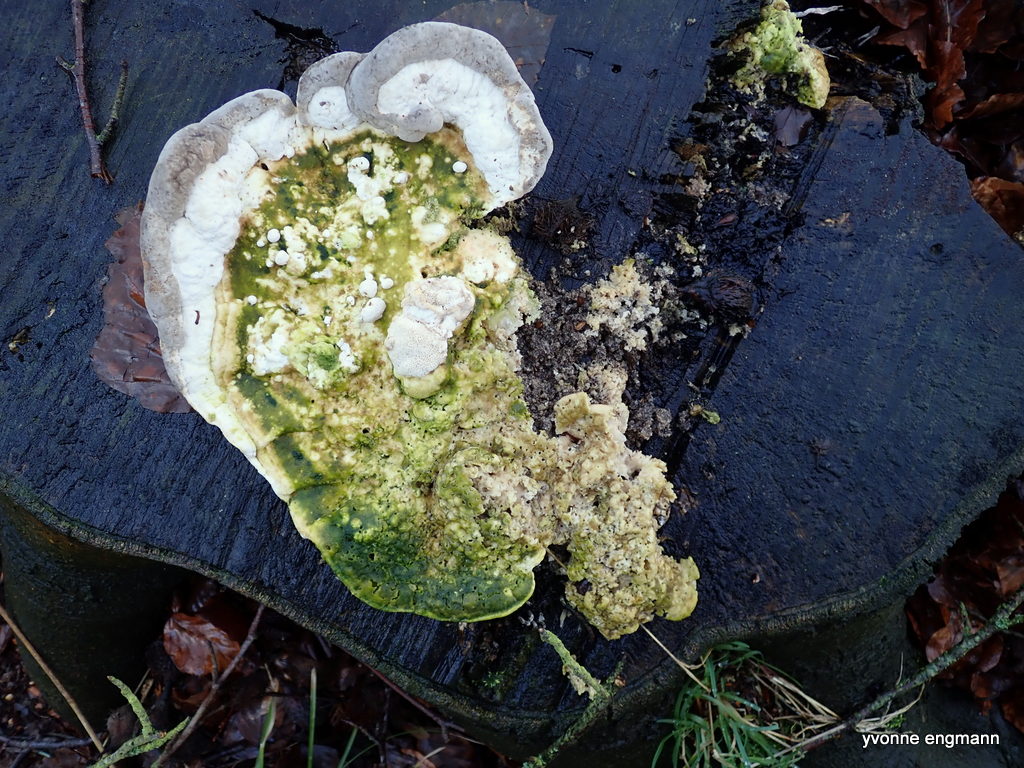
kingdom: Fungi
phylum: Basidiomycota
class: Agaricomycetes
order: Polyporales
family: Polyporaceae
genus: Trametes
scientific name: Trametes gibbosa
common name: puklet læderporesvamp
